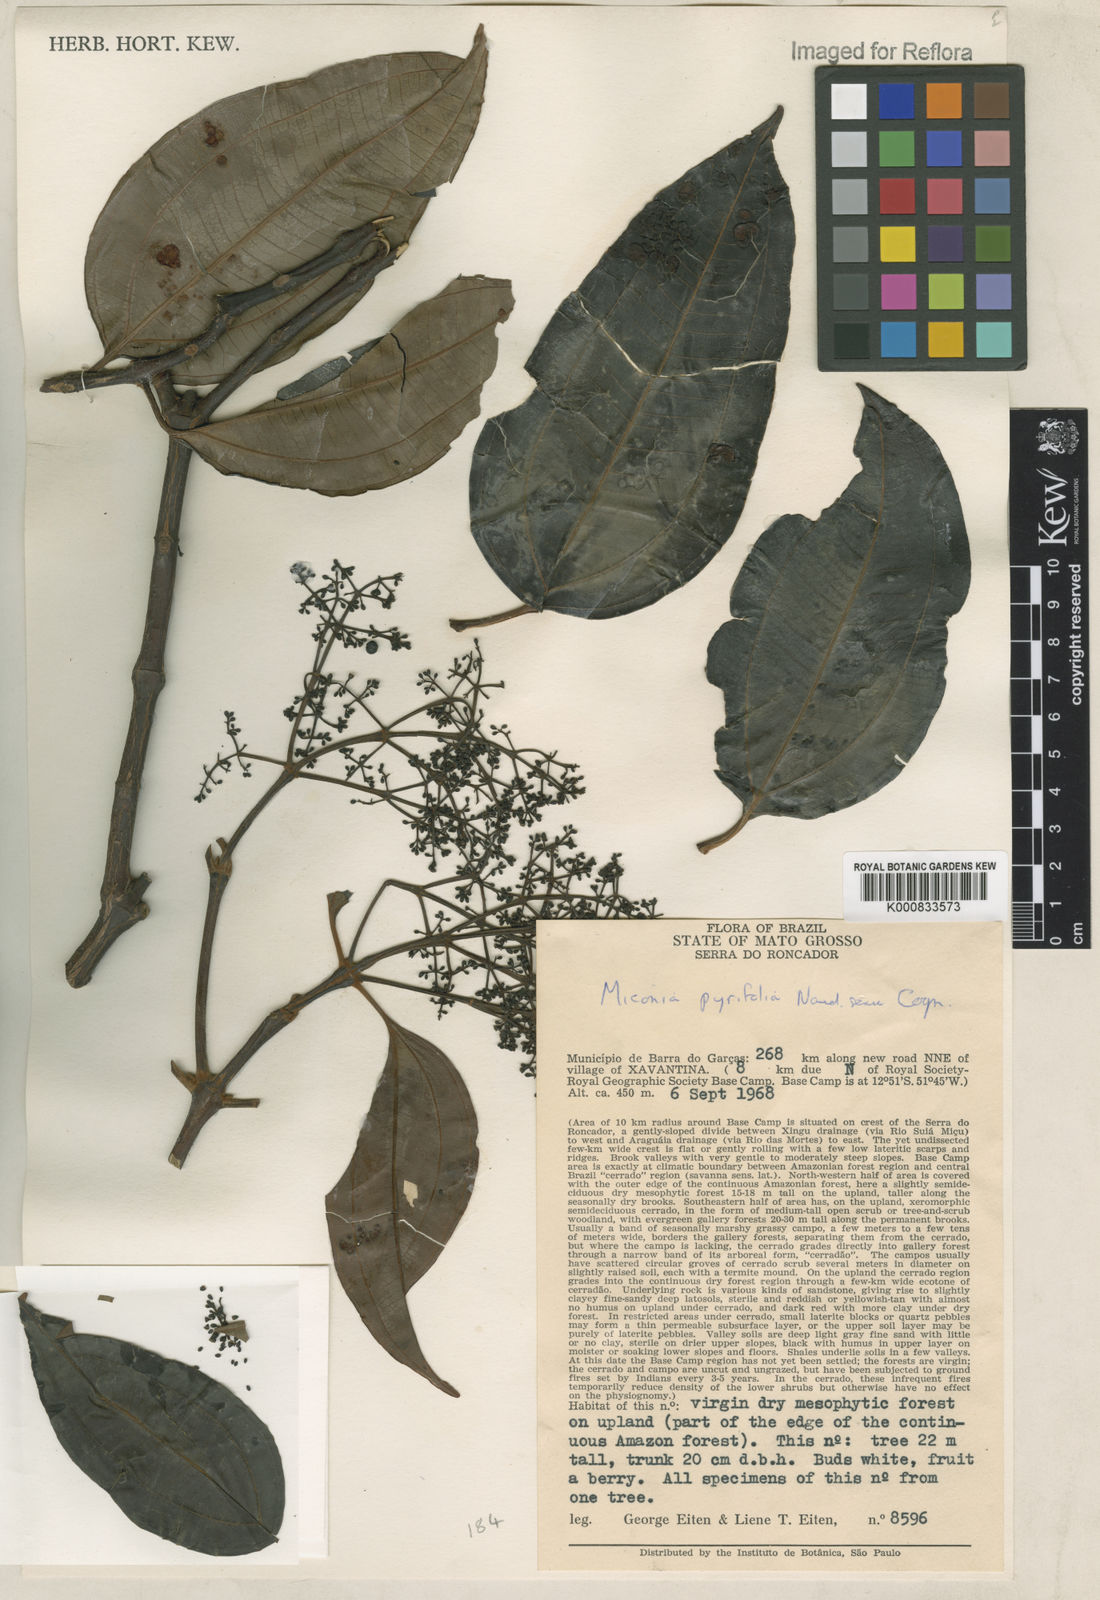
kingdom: Plantae
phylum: Tracheophyta
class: Magnoliopsida
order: Myrtales
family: Melastomataceae
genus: Miconia
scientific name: Miconia pyrifolia
